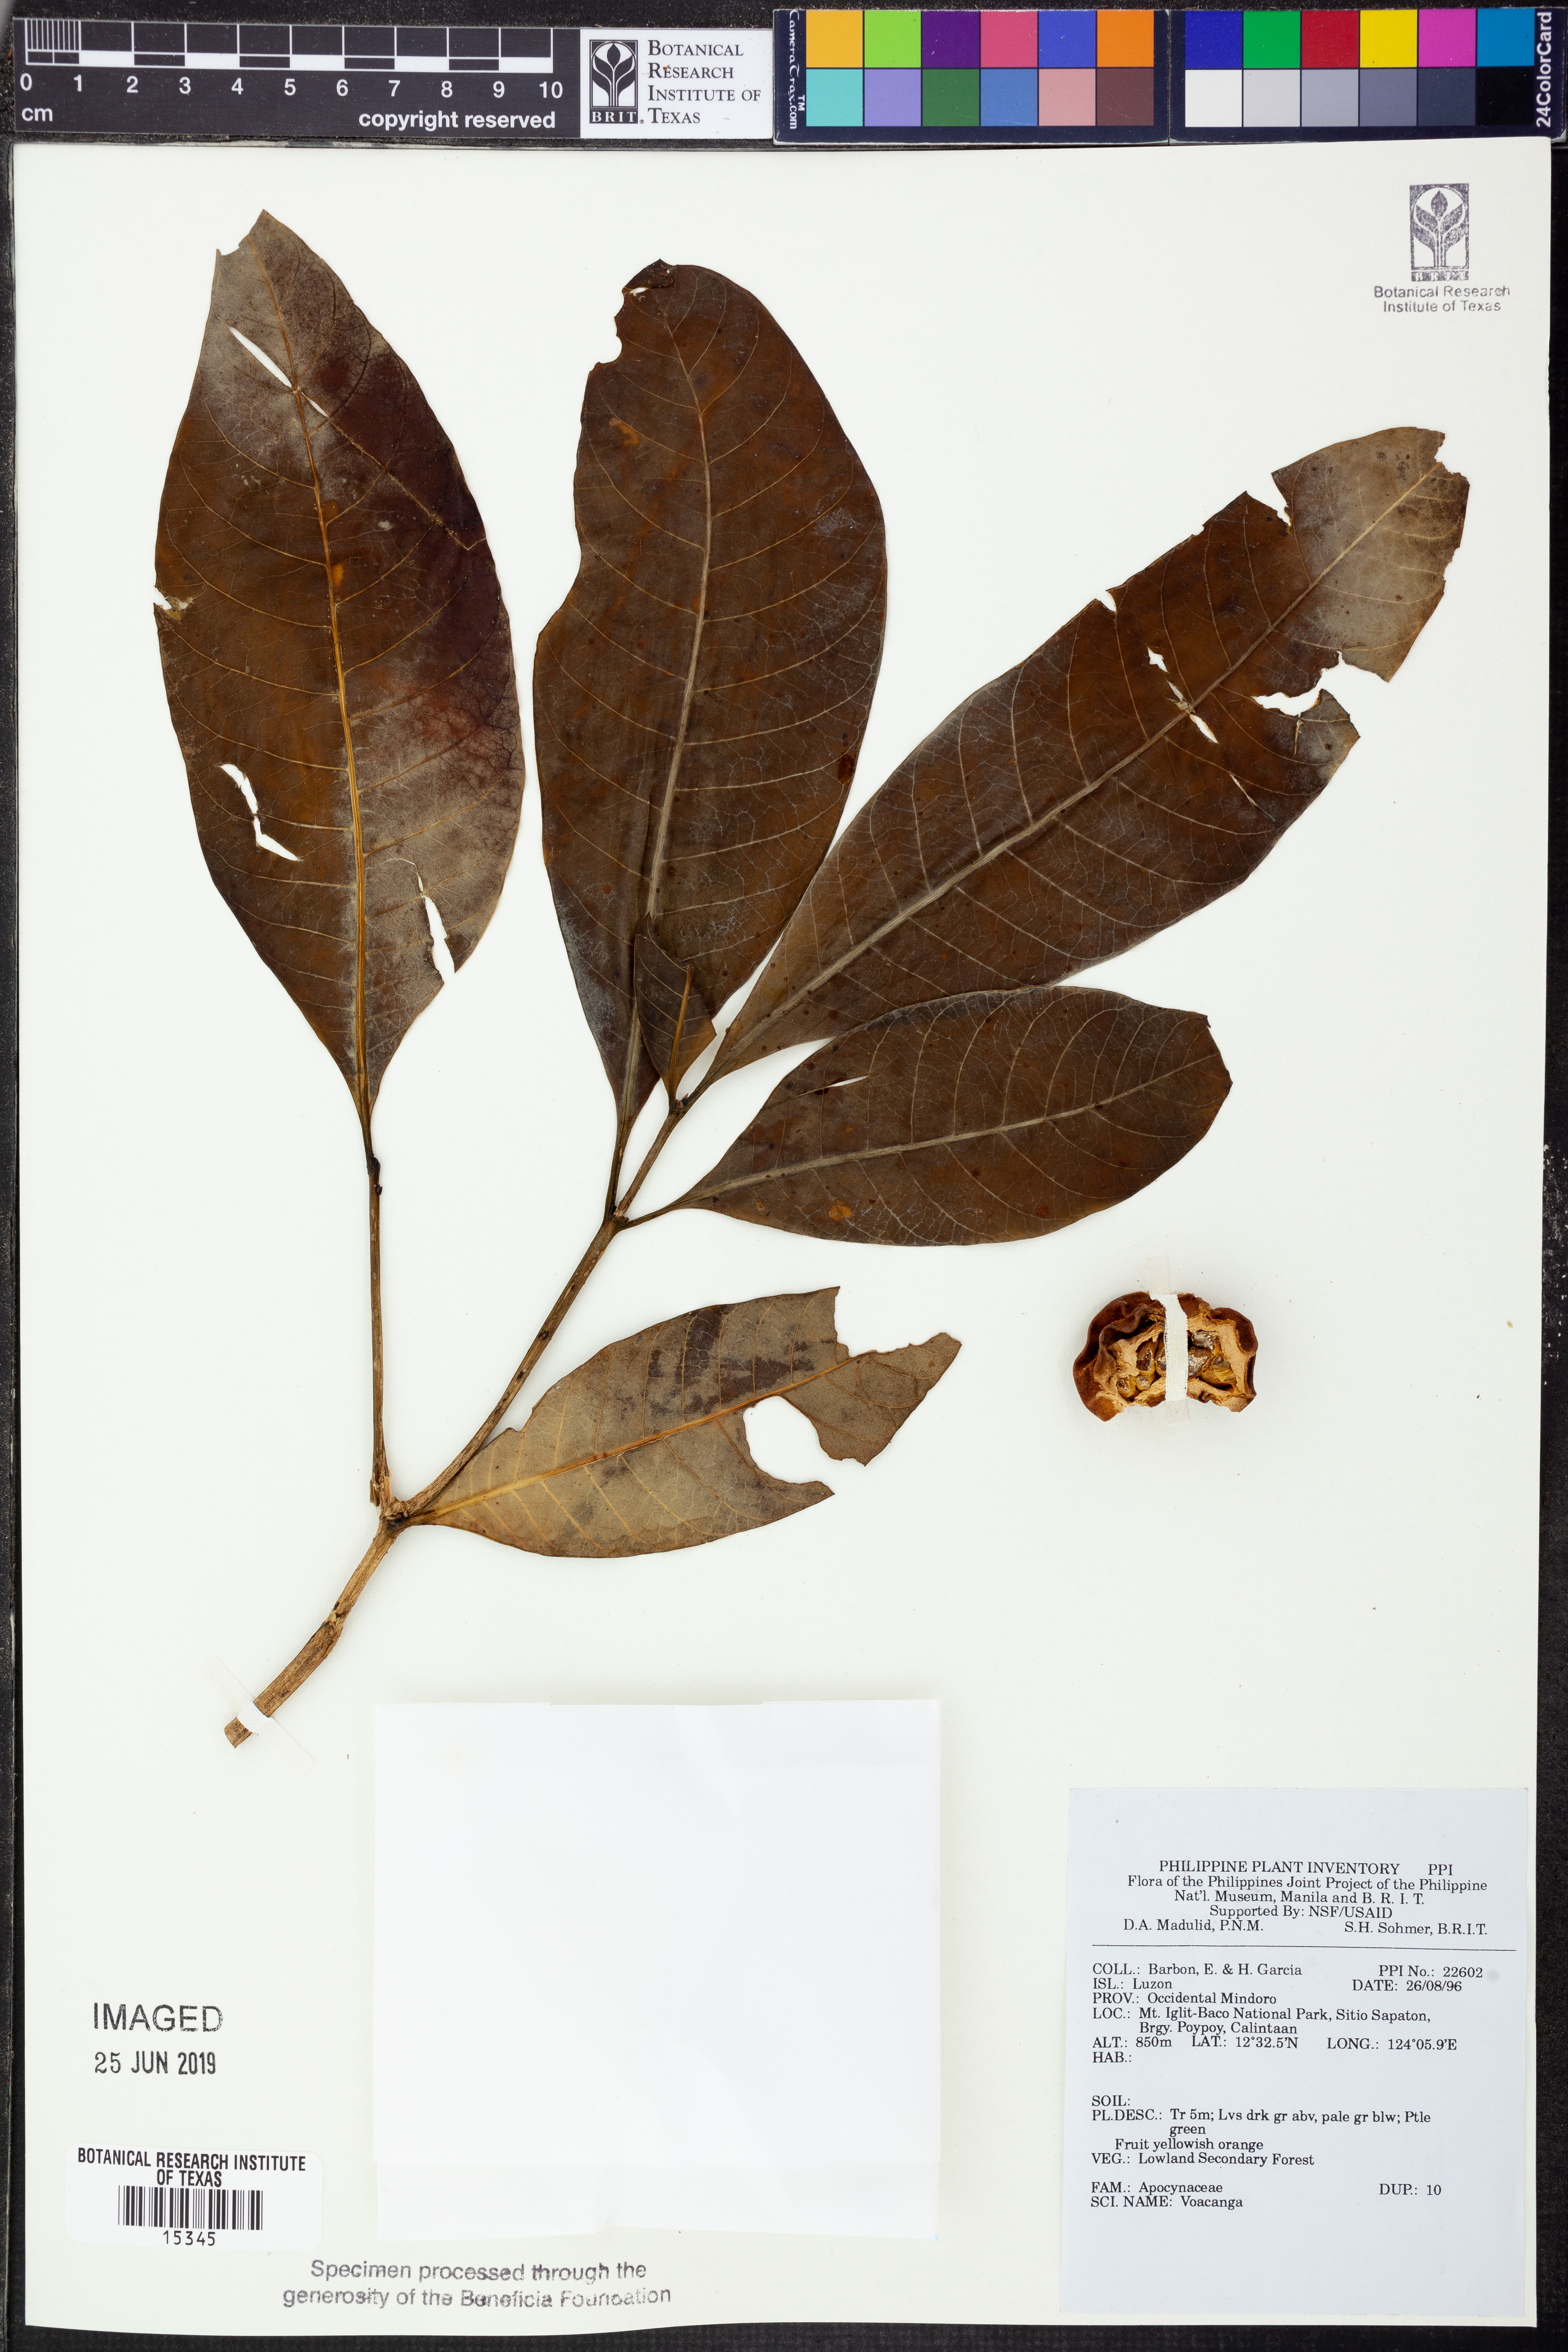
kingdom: Plantae
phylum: Tracheophyta
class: Magnoliopsida
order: Gentianales
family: Apocynaceae
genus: Voacanga
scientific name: Voacanga
